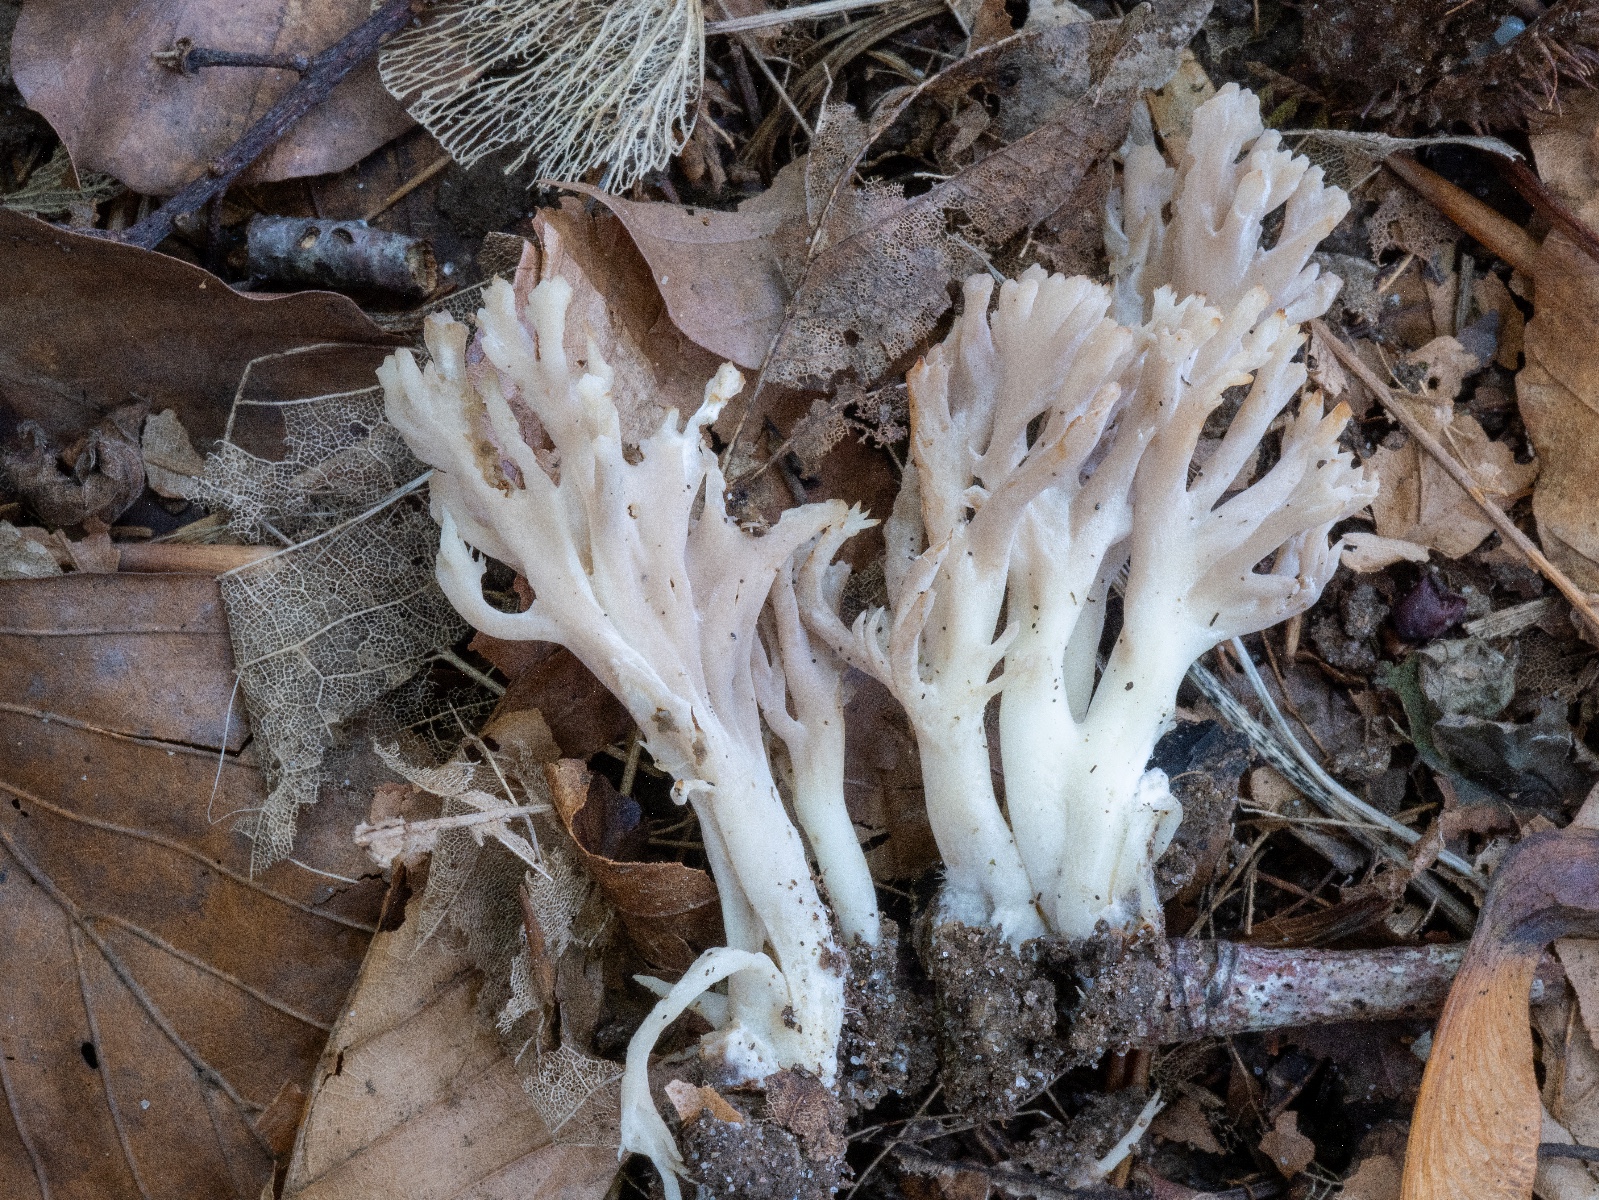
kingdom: Fungi
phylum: Basidiomycota
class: Agaricomycetes
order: Cantharellales
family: Hydnaceae
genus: Clavulina
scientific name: Clavulina
